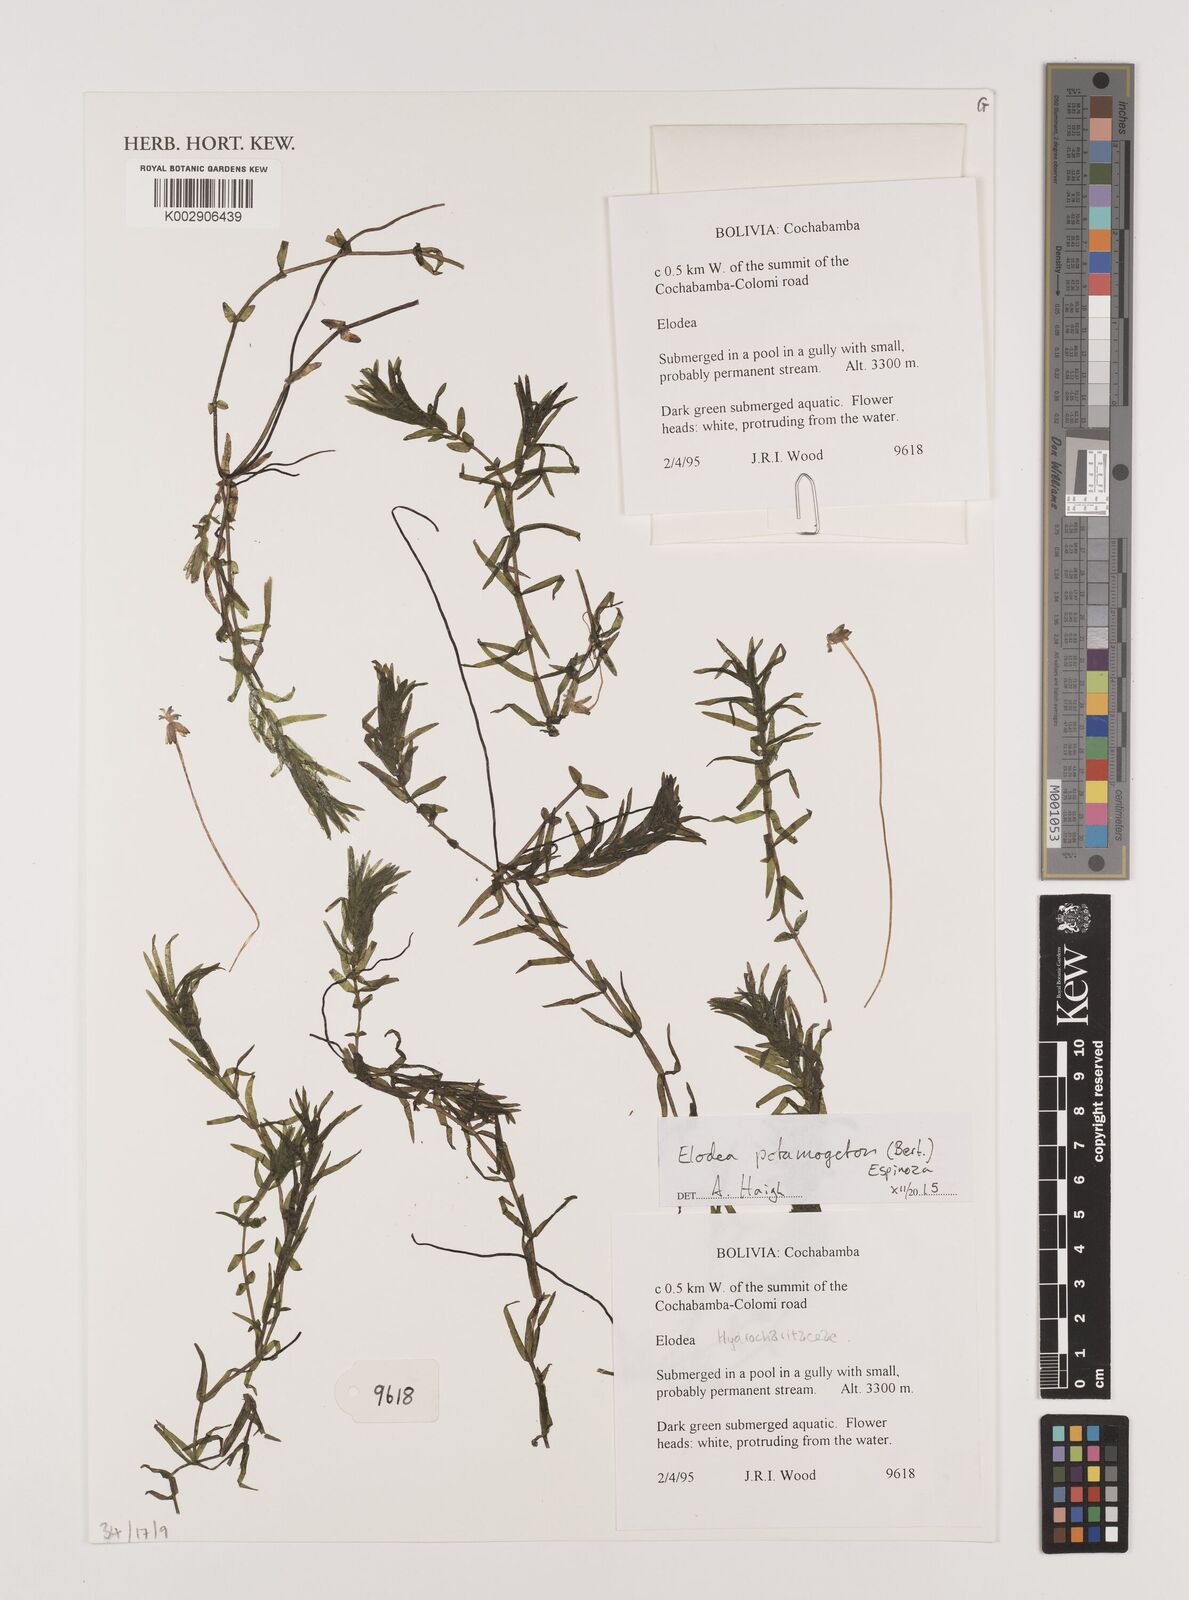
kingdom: Plantae
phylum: Tracheophyta
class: Liliopsida
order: Alismatales
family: Hydrocharitaceae
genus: Elodea
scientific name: Elodea potamogeton
